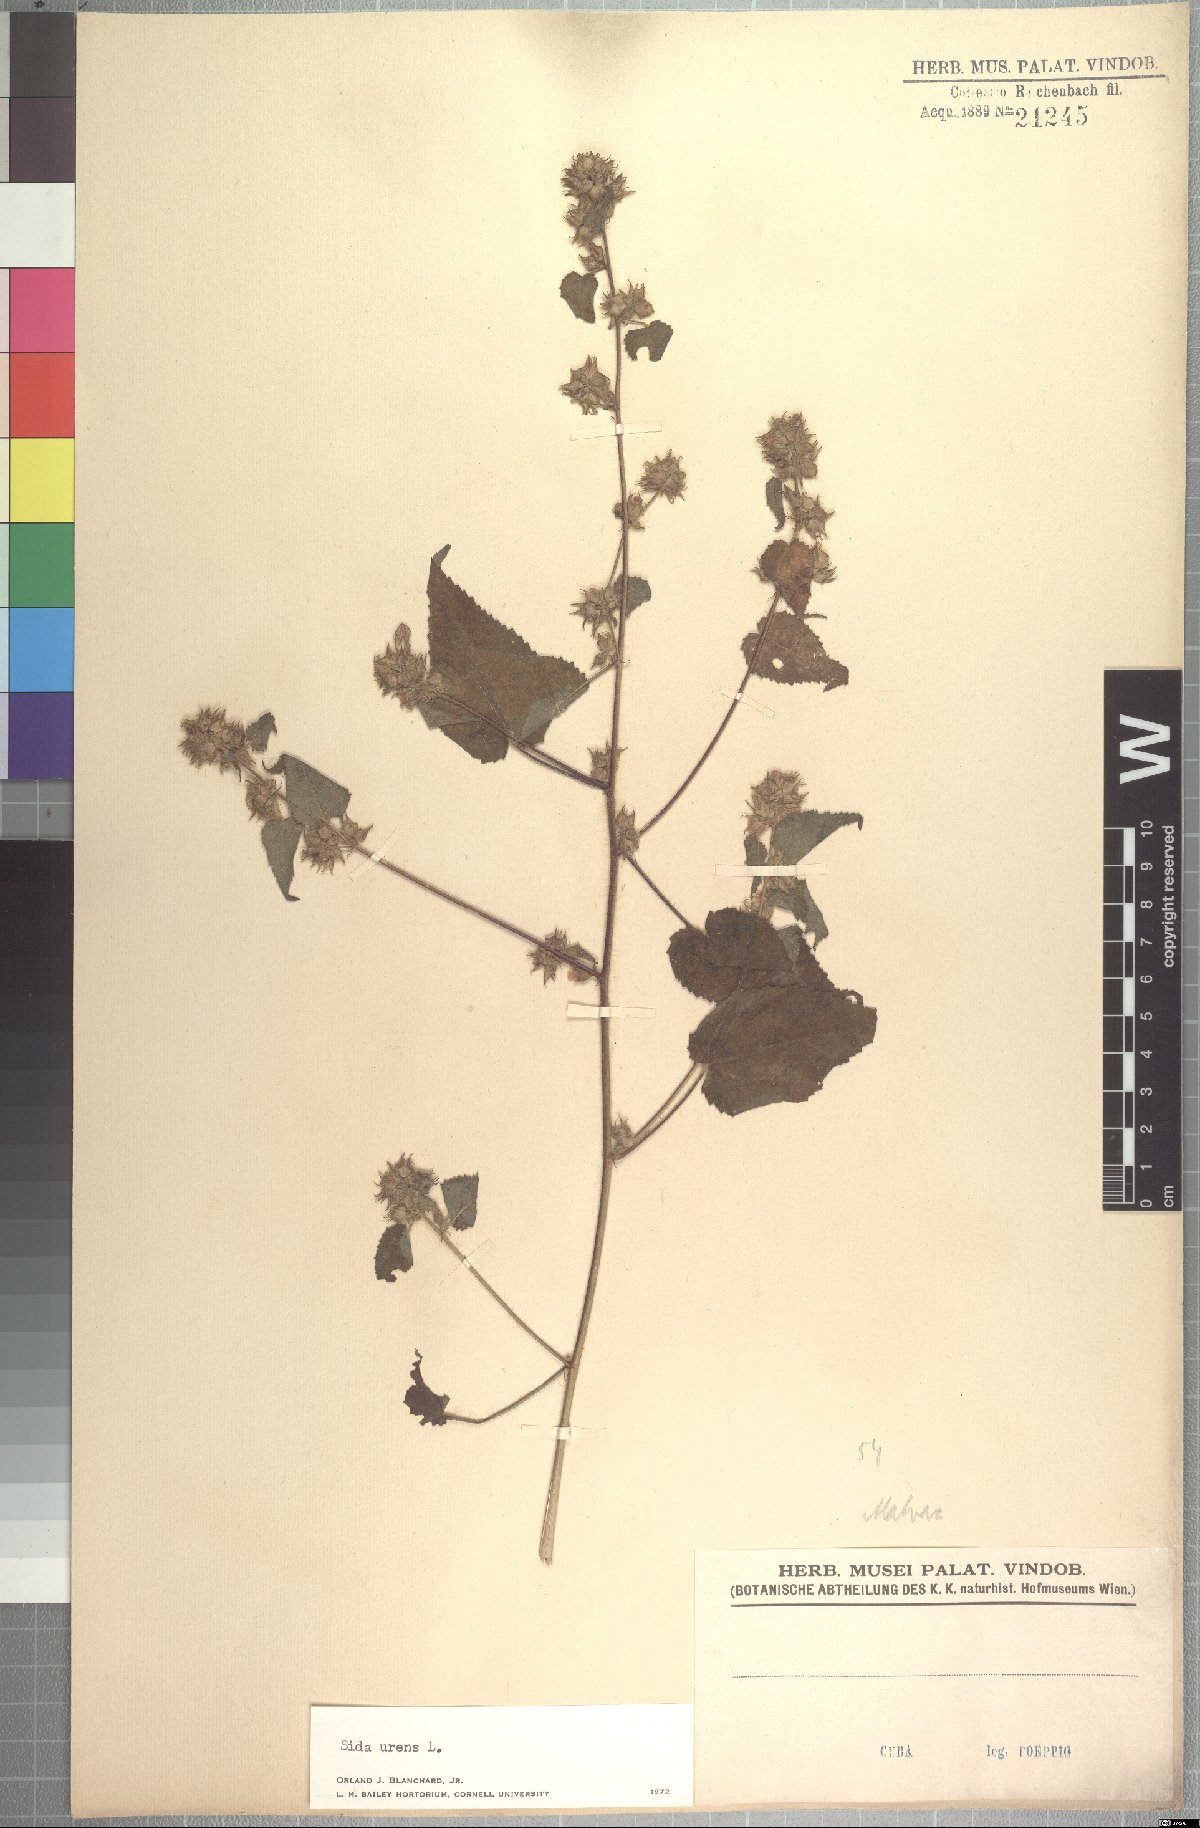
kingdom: Plantae
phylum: Tracheophyta
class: Magnoliopsida
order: Malvales
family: Malvaceae
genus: Sida
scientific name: Sida urens
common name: Tropical fanpetals
